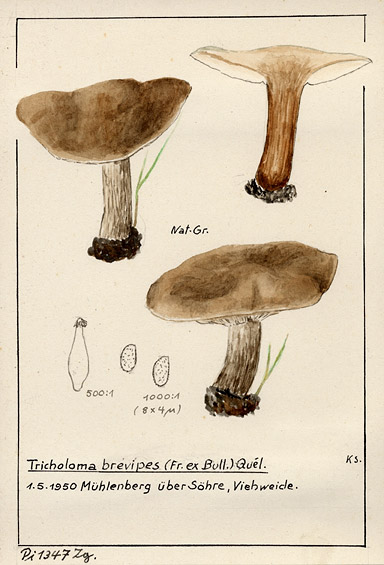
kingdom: Fungi
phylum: Basidiomycota
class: Agaricomycetes
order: Agaricales
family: Tricholomataceae
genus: Melanoleuca
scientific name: Melanoleuca brevipes
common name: Stunted cavalier
